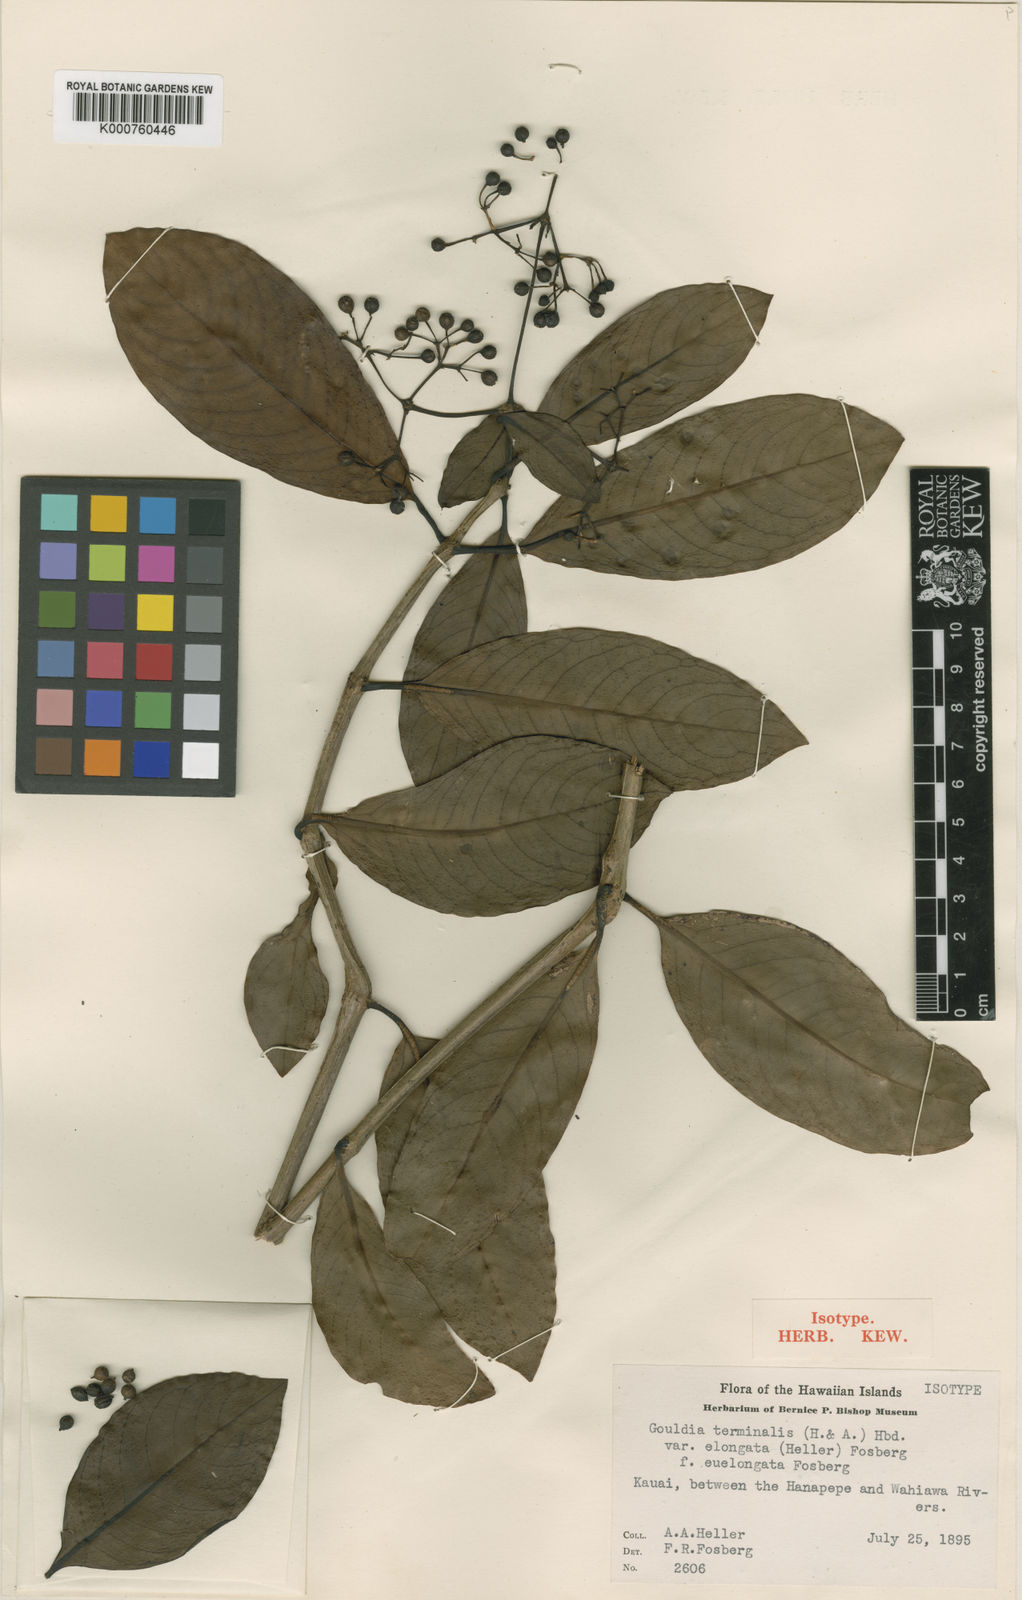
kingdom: Plantae
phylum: Tracheophyta
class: Magnoliopsida
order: Gentianales
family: Rubiaceae
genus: Kadua
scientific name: Kadua affinis
